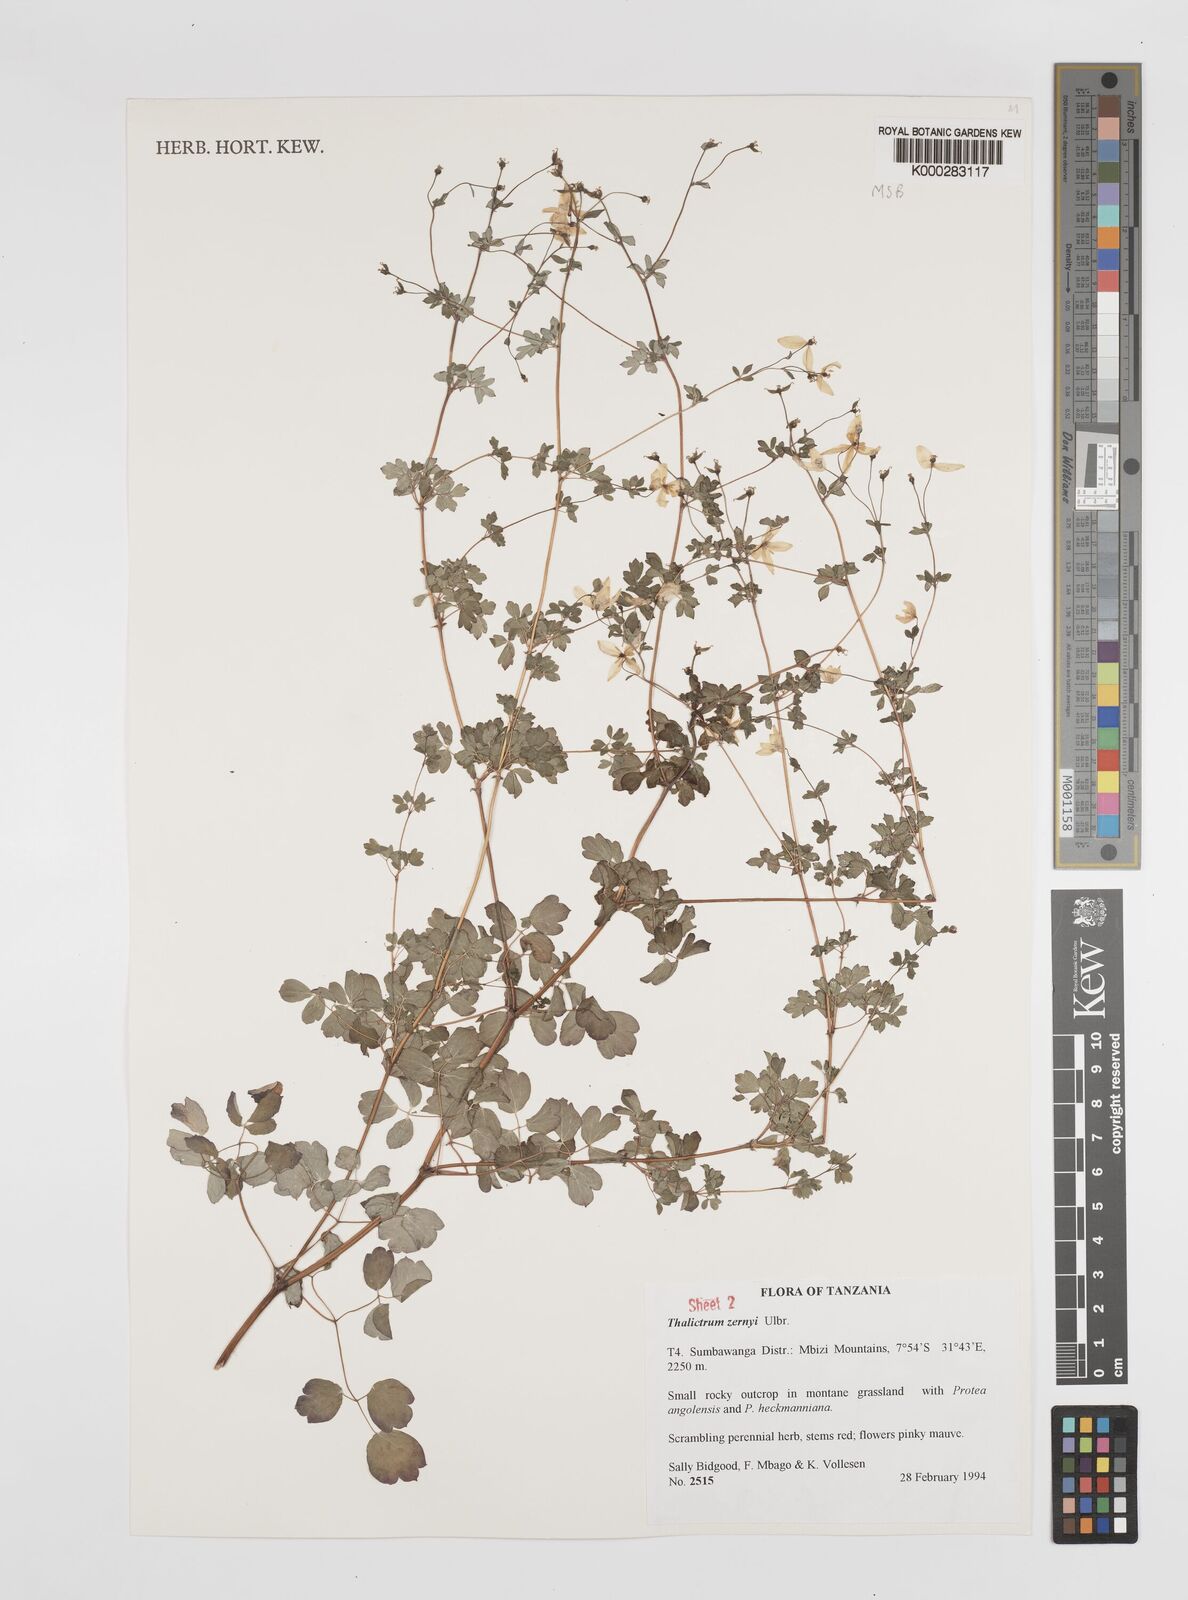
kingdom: Plantae
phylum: Tracheophyta
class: Magnoliopsida
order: Ranunculales
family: Ranunculaceae
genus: Thalictrum
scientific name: Thalictrum zernyi
